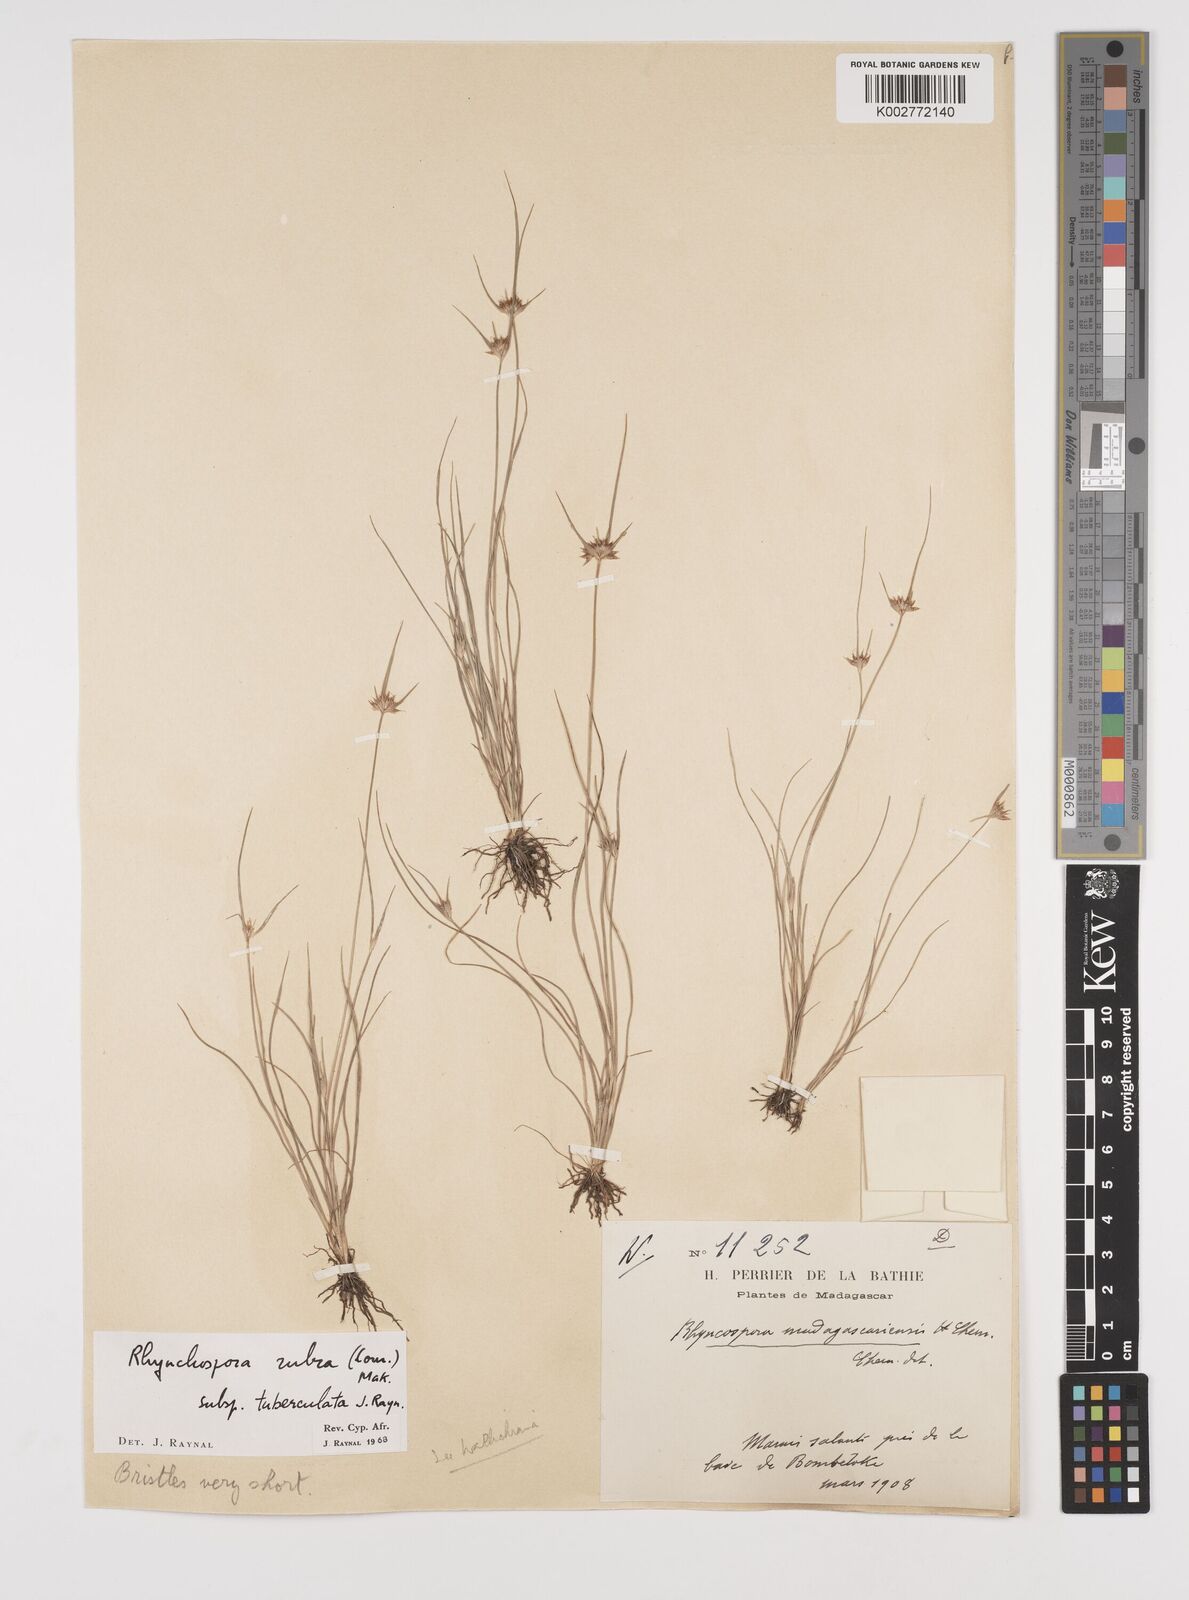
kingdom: Plantae
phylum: Tracheophyta
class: Liliopsida
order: Poales
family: Cyperaceae
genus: Rhynchospora
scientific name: Rhynchospora rubra
